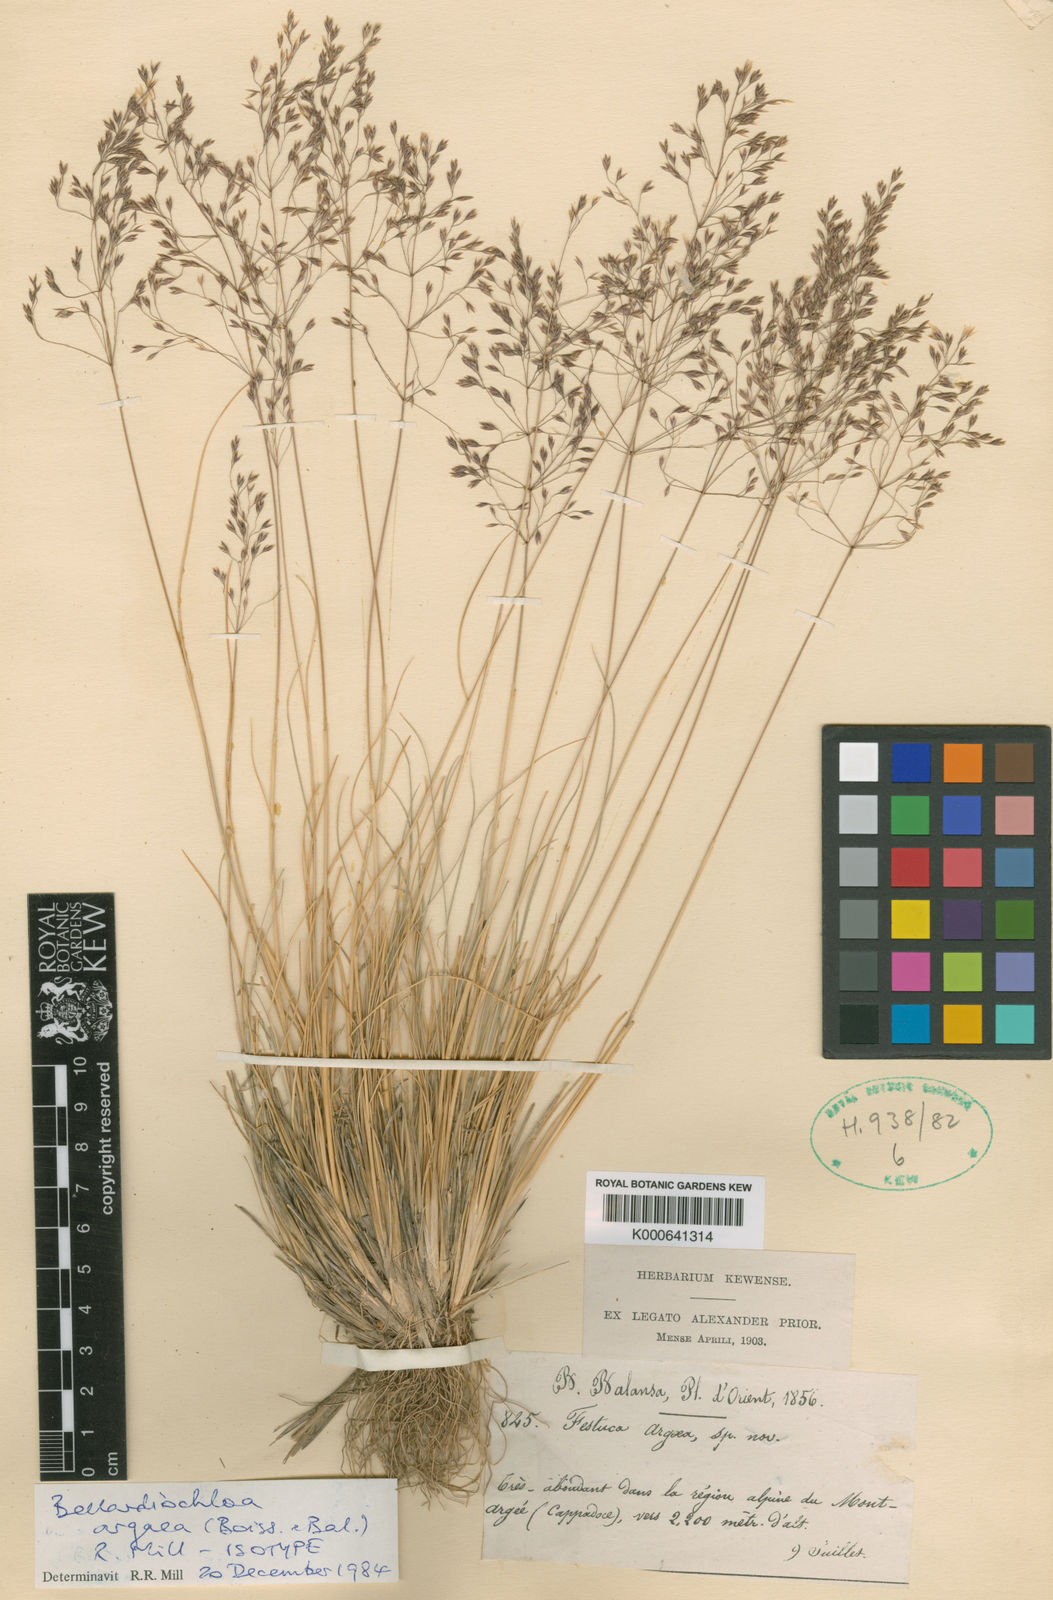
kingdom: Plantae
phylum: Tracheophyta
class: Liliopsida
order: Poales
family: Poaceae
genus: Bellardiochloa
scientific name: Bellardiochloa argaea
